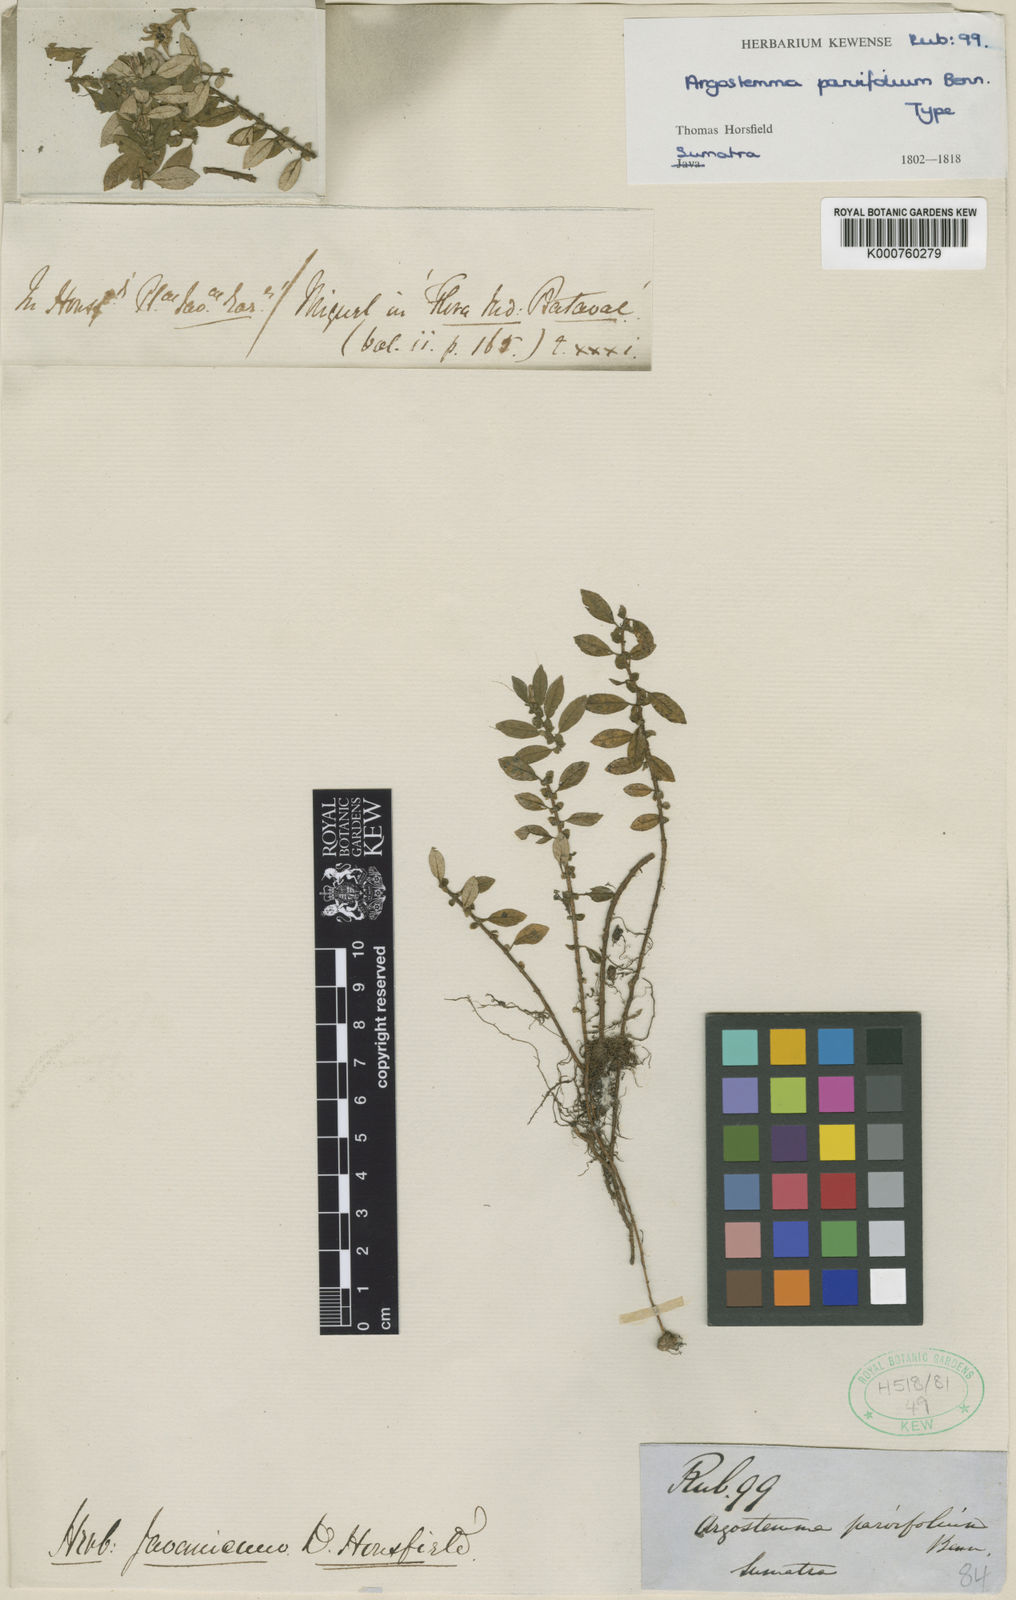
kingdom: Plantae
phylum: Tracheophyta
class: Magnoliopsida
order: Gentianales
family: Rubiaceae
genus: Argostemma
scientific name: Argostemma parvifolium
